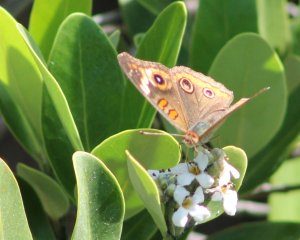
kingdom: Animalia
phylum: Arthropoda
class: Insecta
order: Lepidoptera
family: Nymphalidae
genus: Junonia
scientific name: Junonia coenia
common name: Common Buckeye
